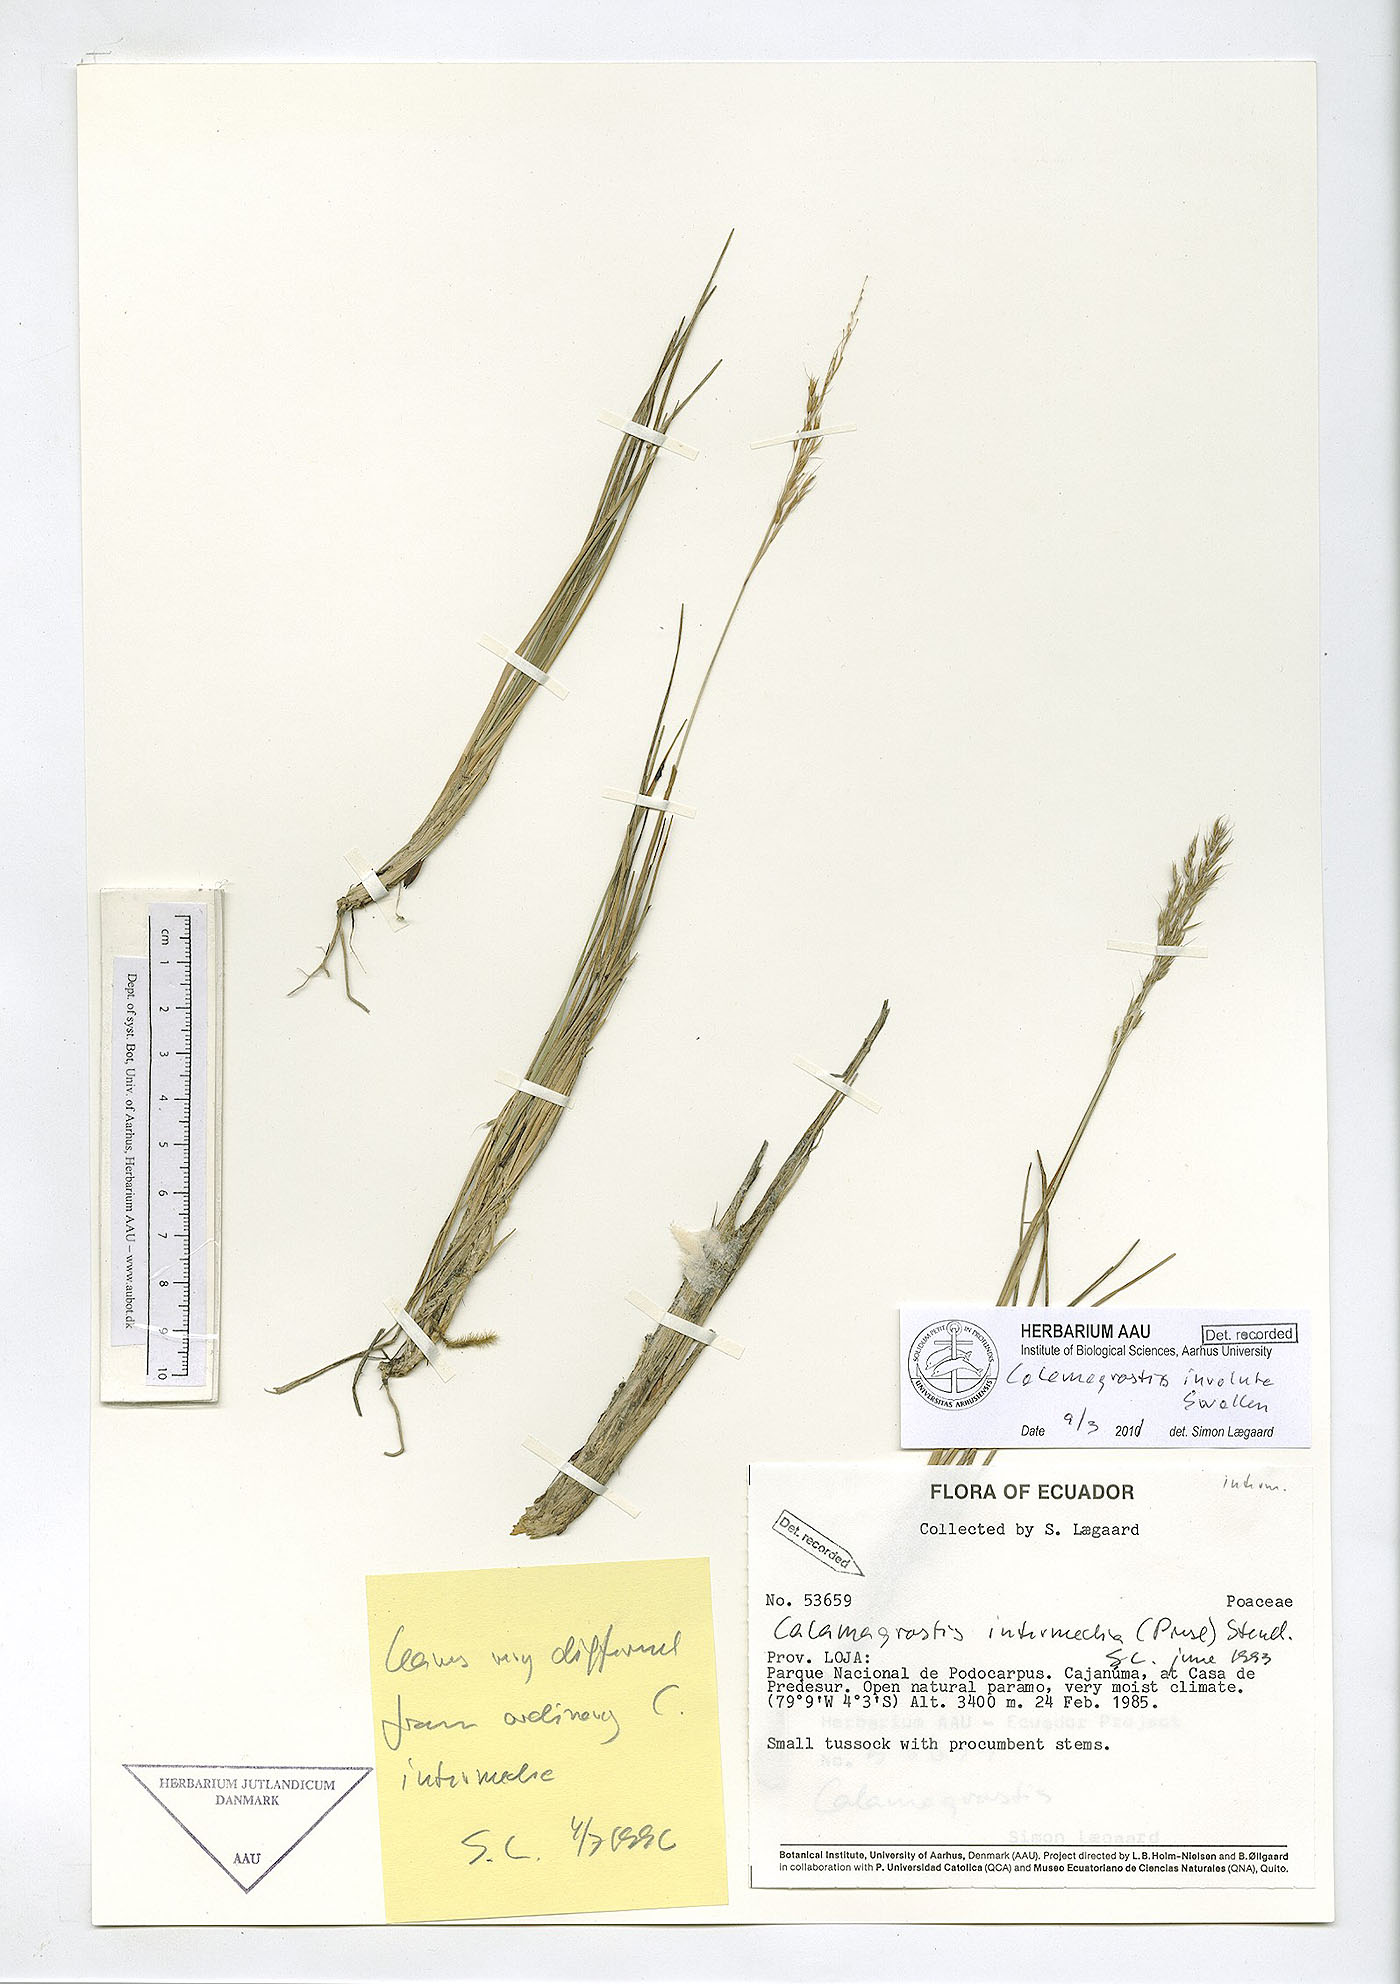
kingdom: Plantae
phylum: Tracheophyta
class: Liliopsida
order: Poales
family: Poaceae
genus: Cinnagrostis
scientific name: Cinnagrostis involuta
